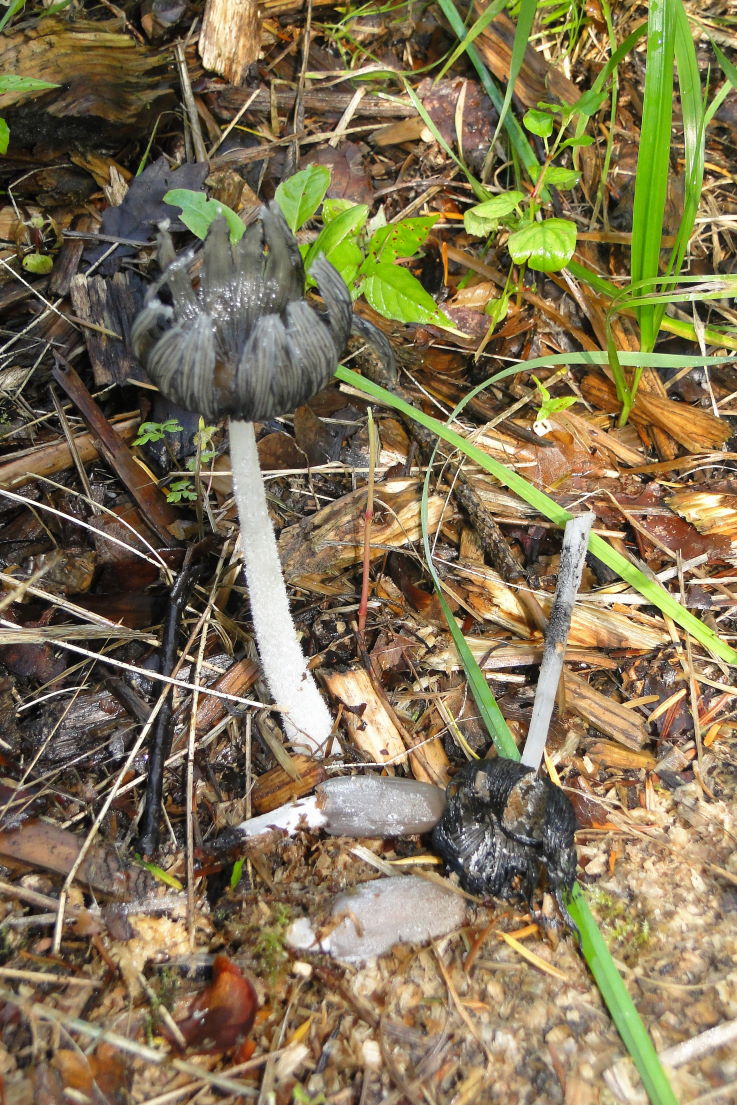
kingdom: Fungi
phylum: Basidiomycota
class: Agaricomycetes
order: Agaricales
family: Psathyrellaceae
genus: Coprinopsis
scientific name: Coprinopsis lagopus
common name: dunstokket blækhat
